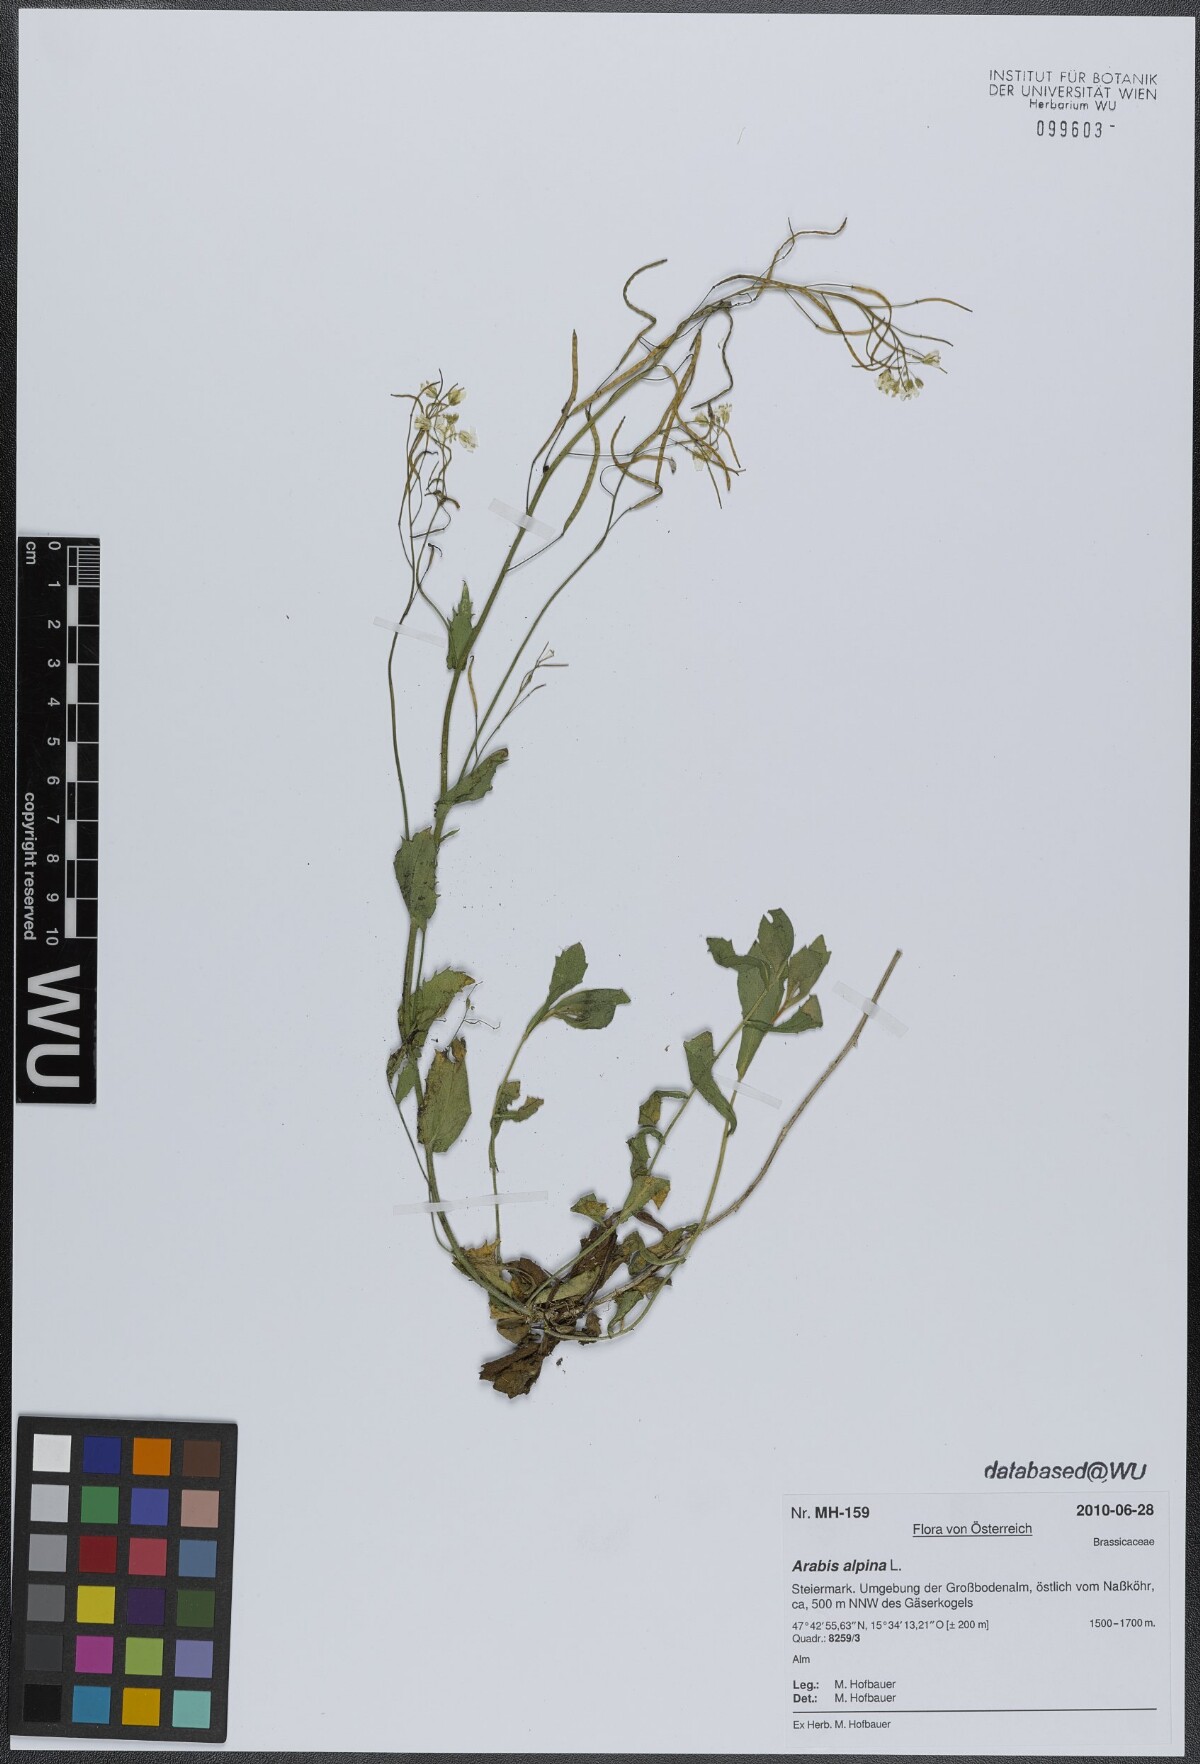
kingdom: Plantae
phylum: Tracheophyta
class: Magnoliopsida
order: Brassicales
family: Brassicaceae
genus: Arabis
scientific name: Arabis alpina
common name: Alpine rock-cress
